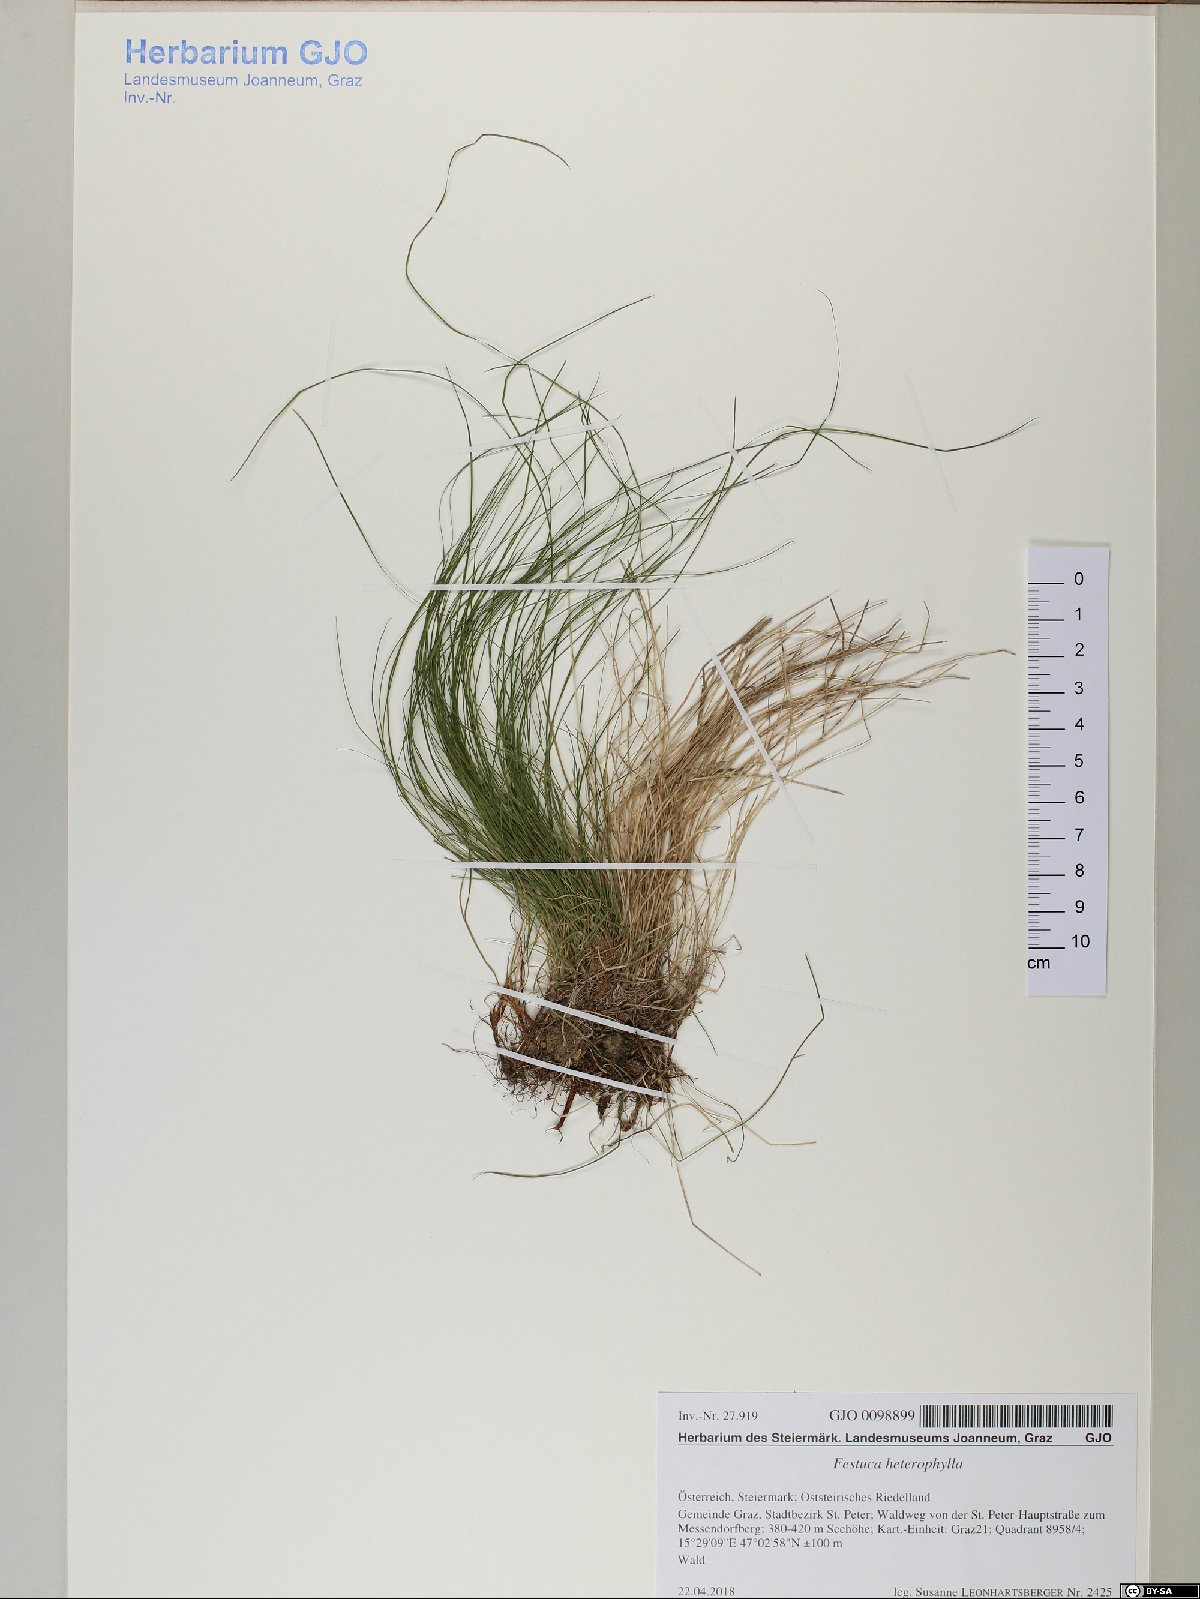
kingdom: Plantae
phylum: Tracheophyta
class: Liliopsida
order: Poales
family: Poaceae
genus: Festuca
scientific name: Festuca heterophylla
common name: Various-leaved fescue
